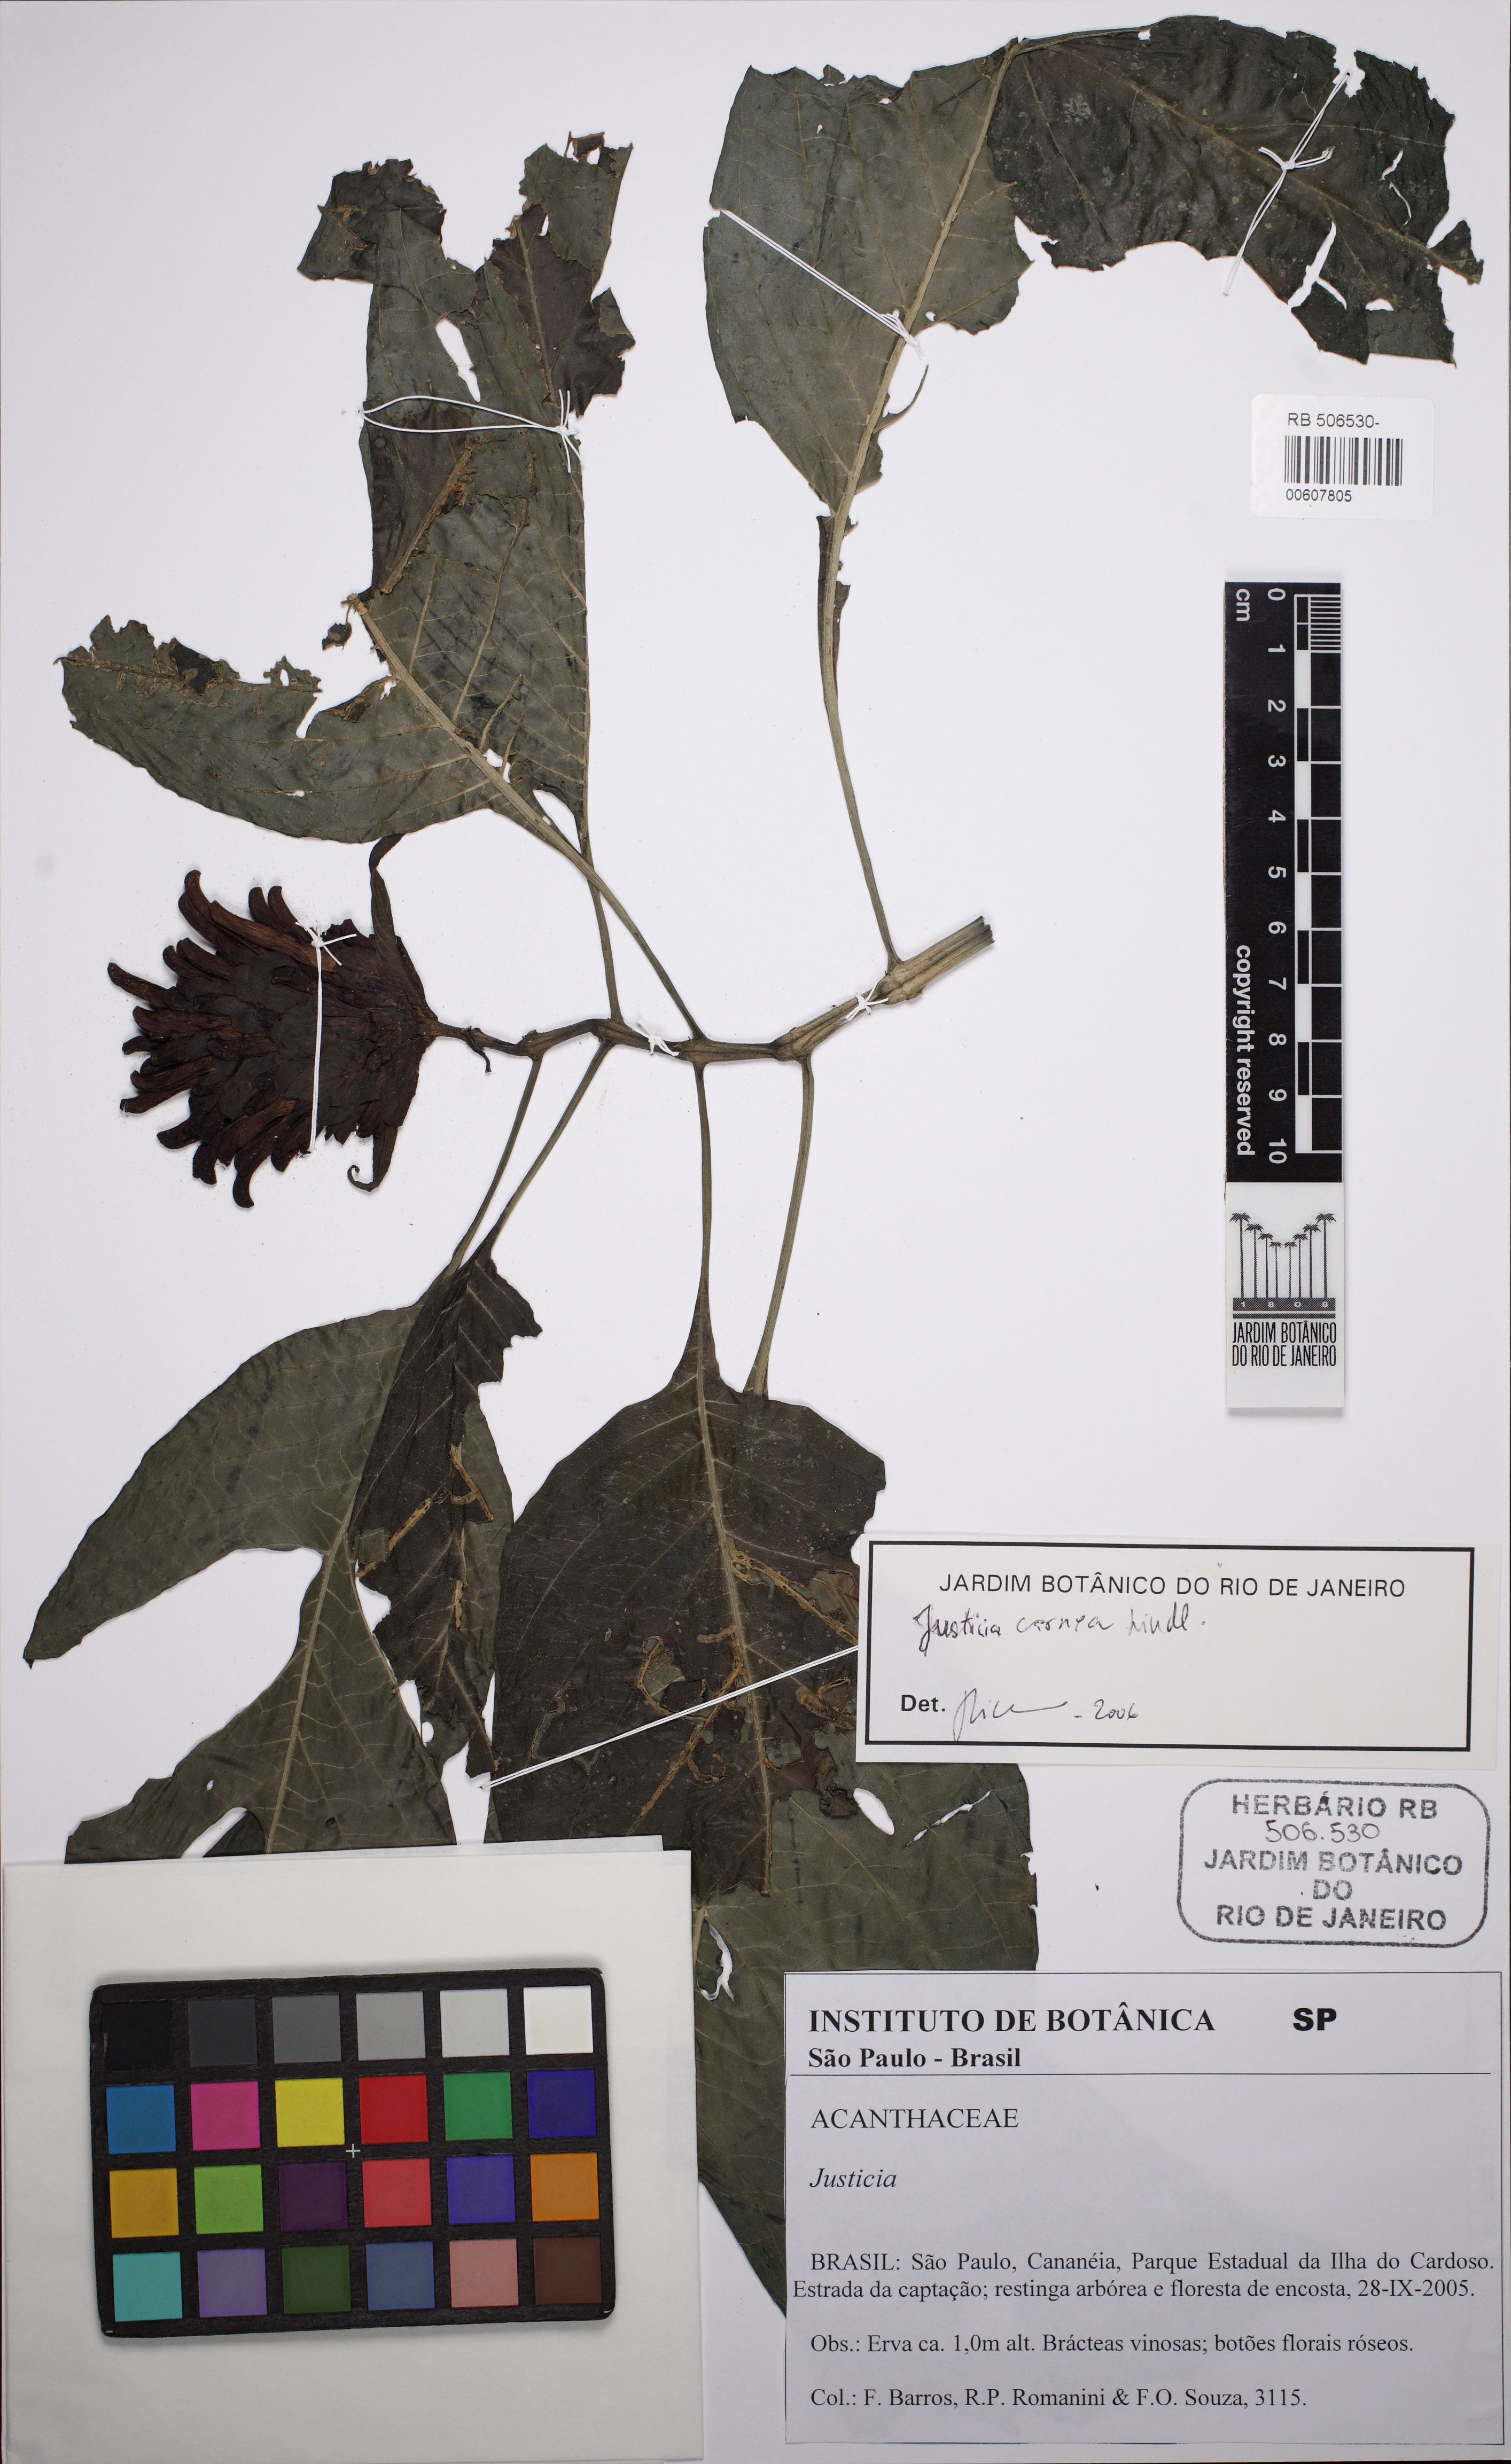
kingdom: Plantae
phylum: Tracheophyta
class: Magnoliopsida
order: Lamiales
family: Acanthaceae
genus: Justicia
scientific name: Justicia carnea
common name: Brazilian-plume
